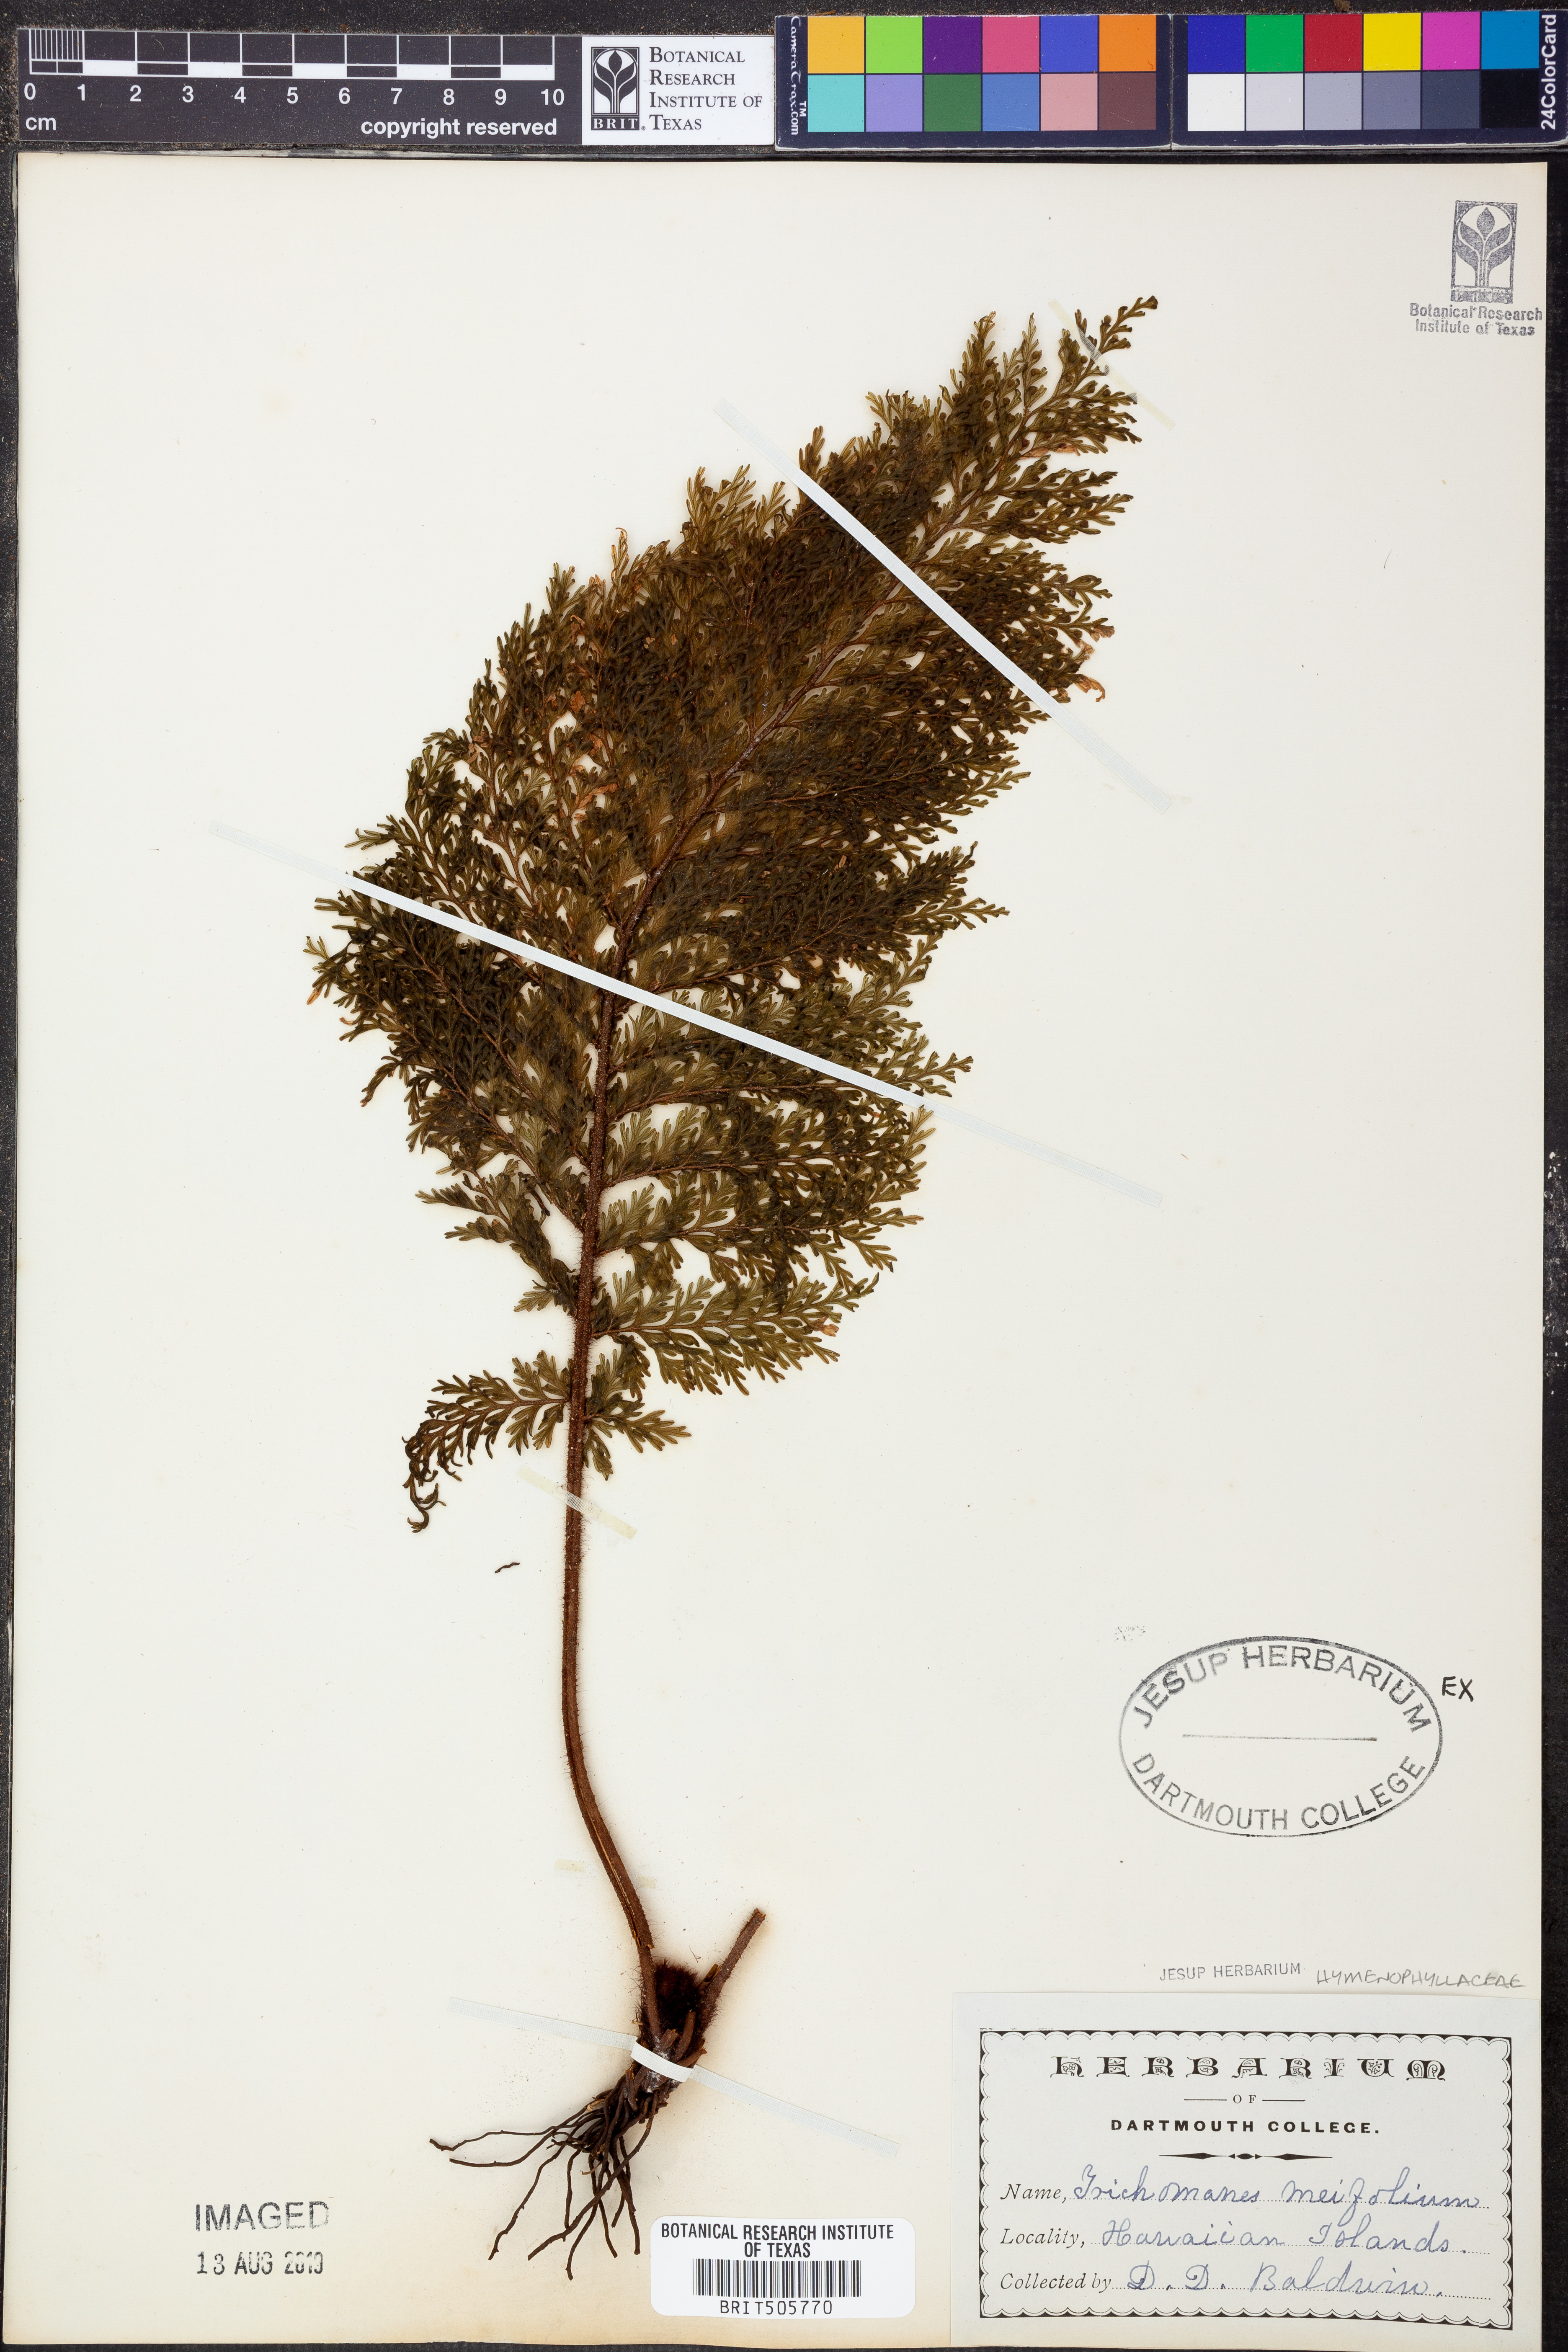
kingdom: Plantae
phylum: Tracheophyta
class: Polypodiopsida
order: Hymenophyllales
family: Hymenophyllaceae
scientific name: Hymenophyllaceae
